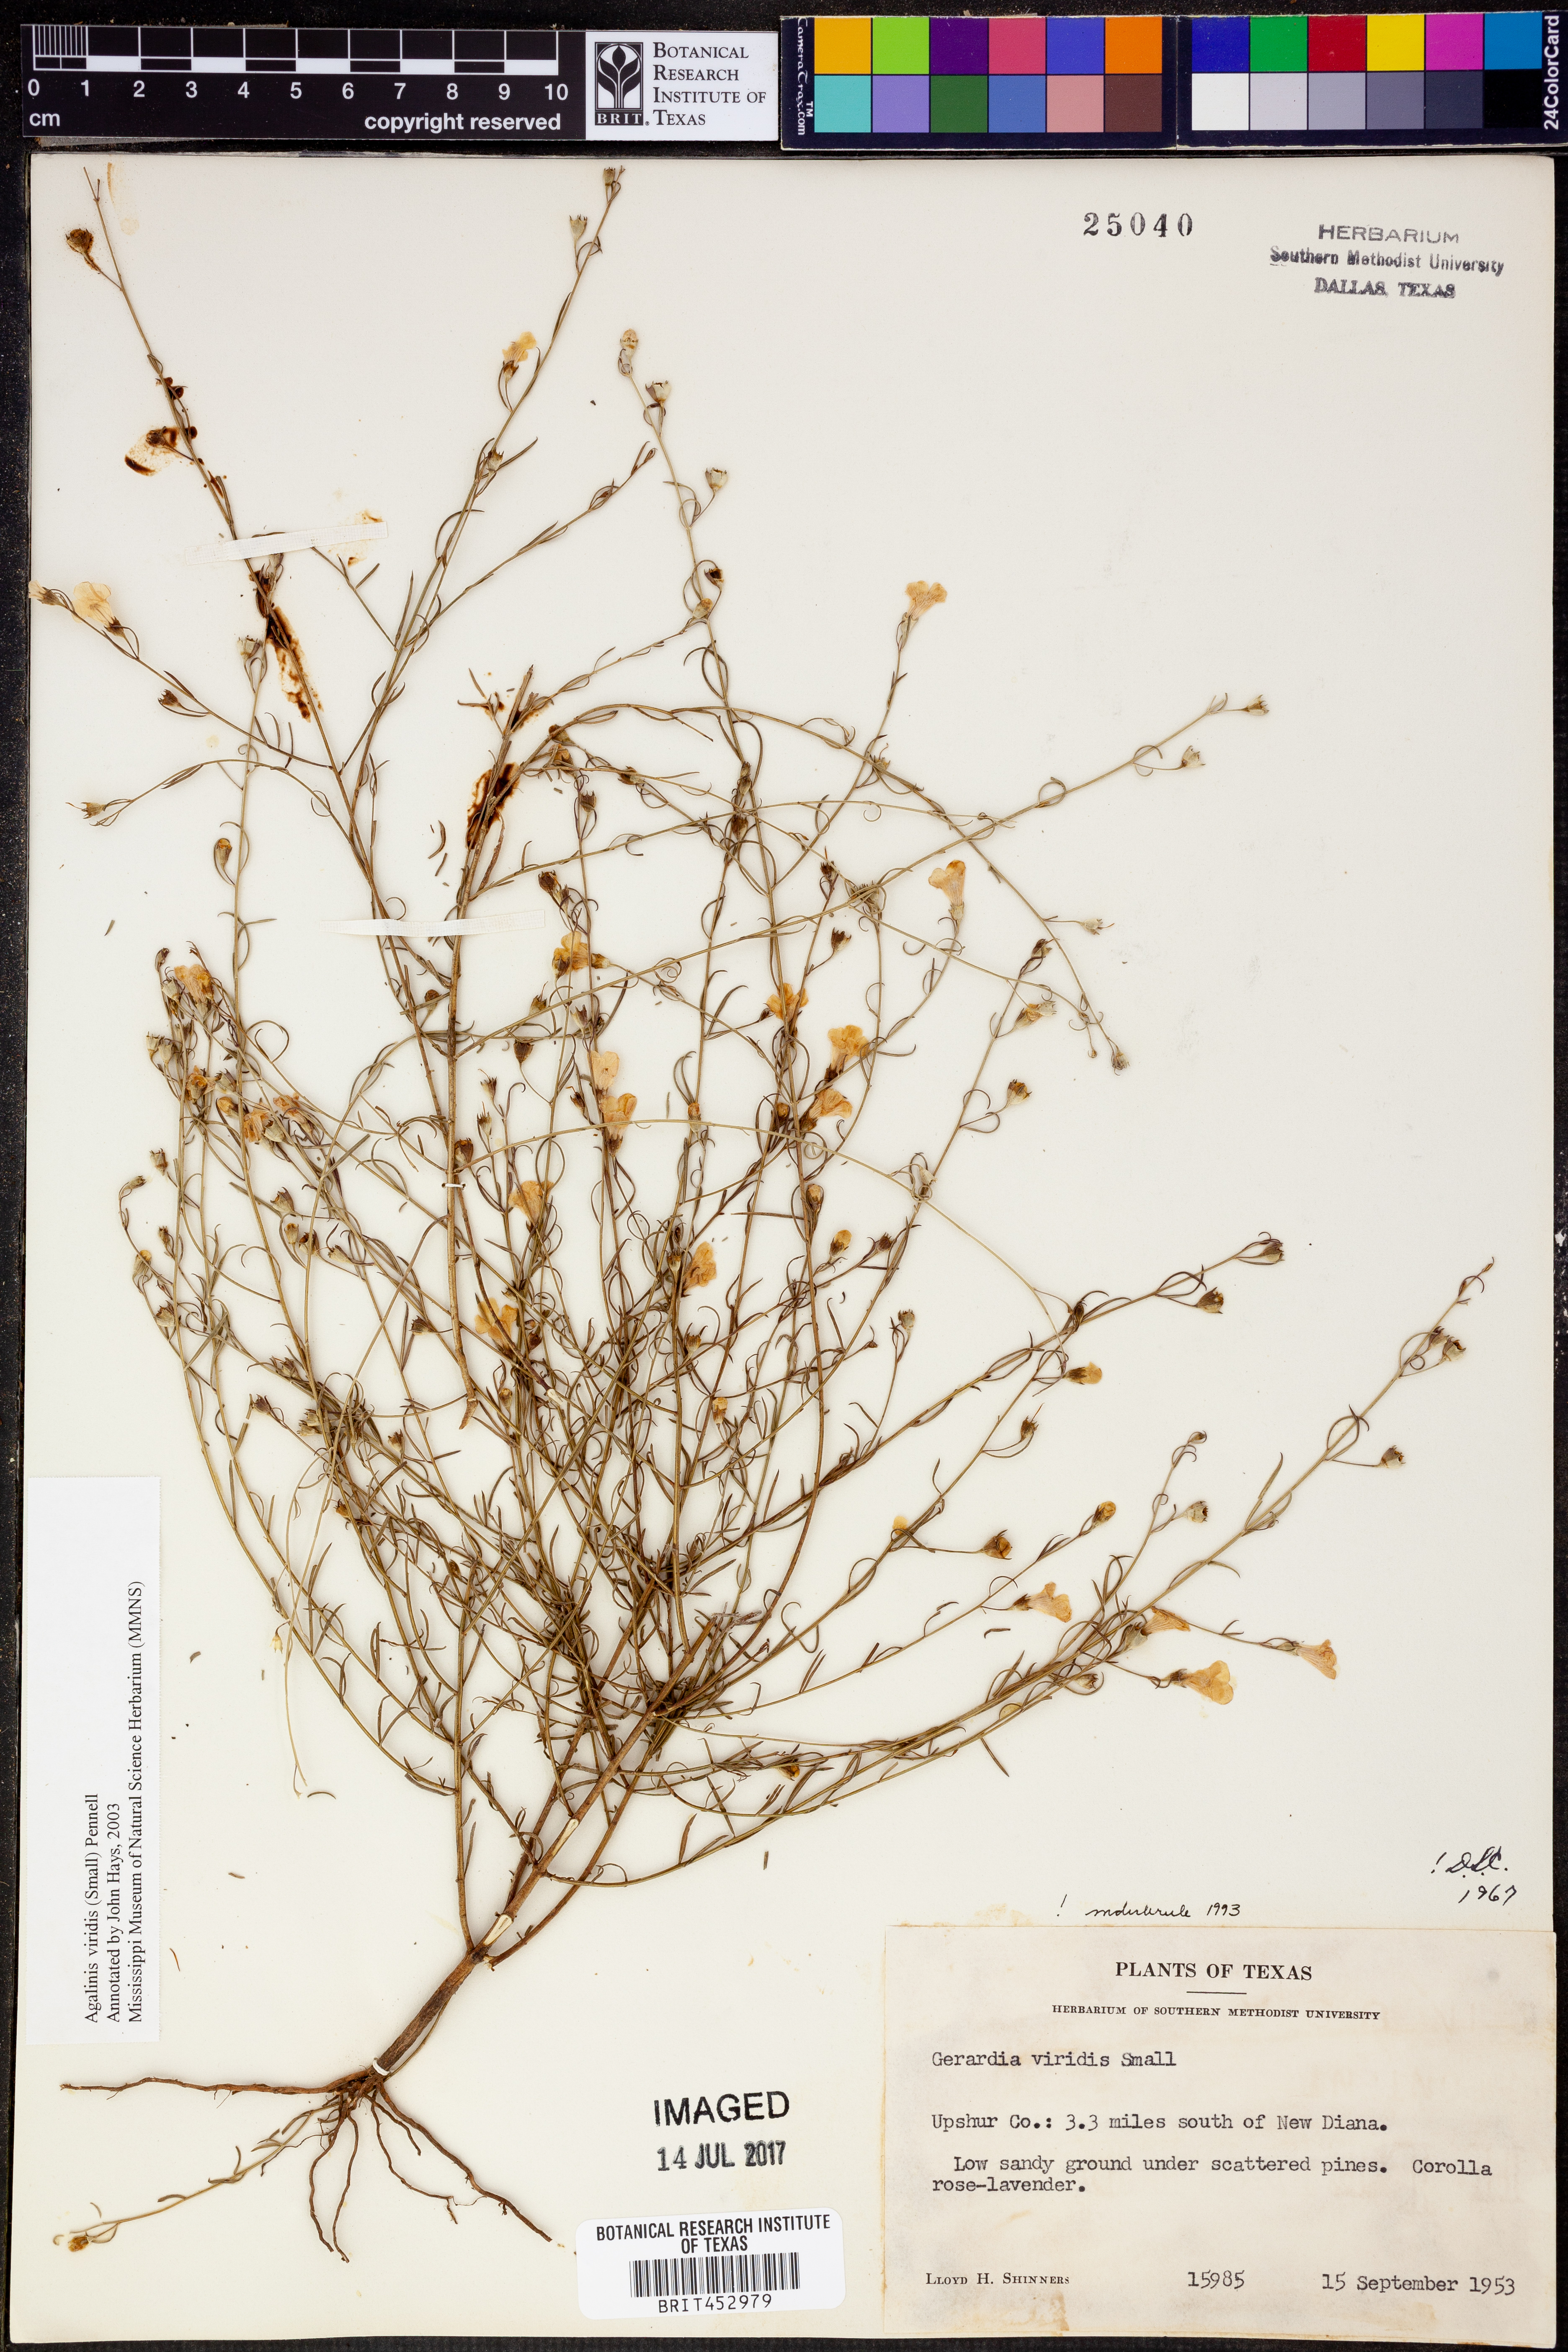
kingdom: Plantae
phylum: Tracheophyta
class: Magnoliopsida
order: Lamiales
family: Orobanchaceae
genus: Agalinis
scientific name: Agalinis viridis
